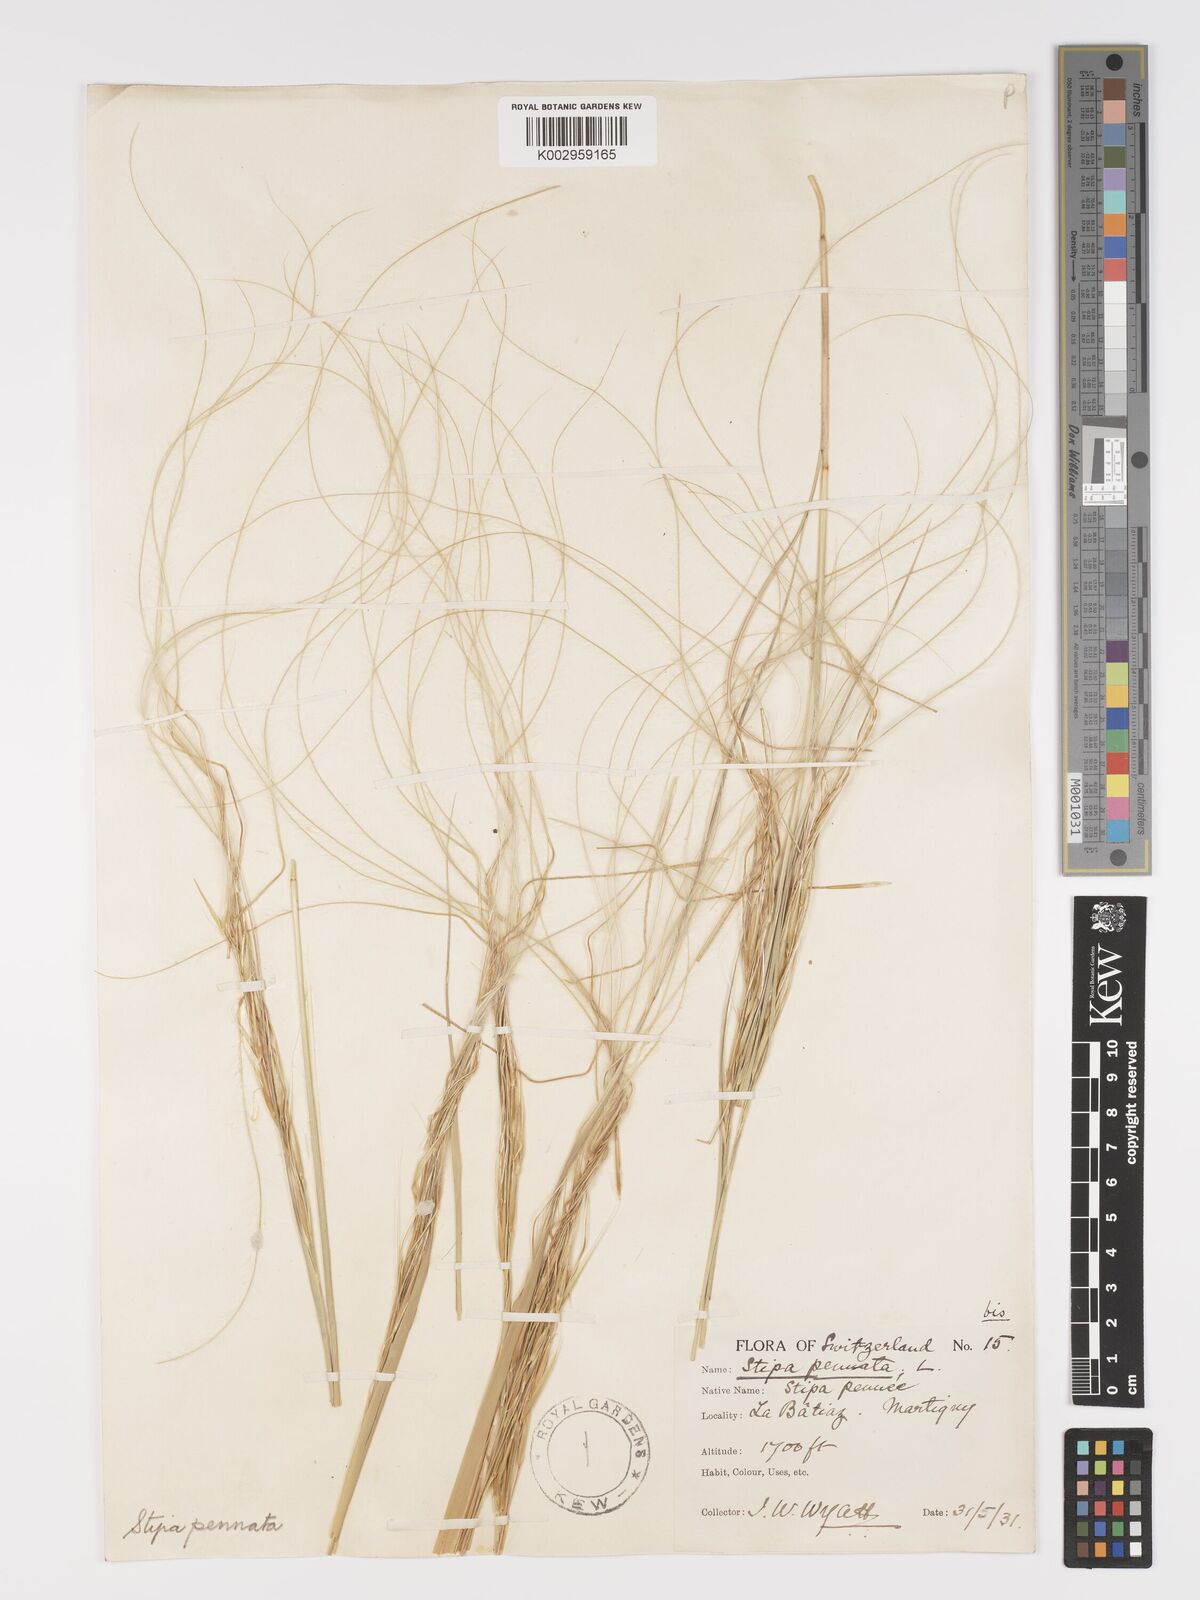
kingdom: Plantae
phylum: Tracheophyta
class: Liliopsida
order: Poales
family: Poaceae
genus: Stipa
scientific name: Stipa pennata
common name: European feather grass
